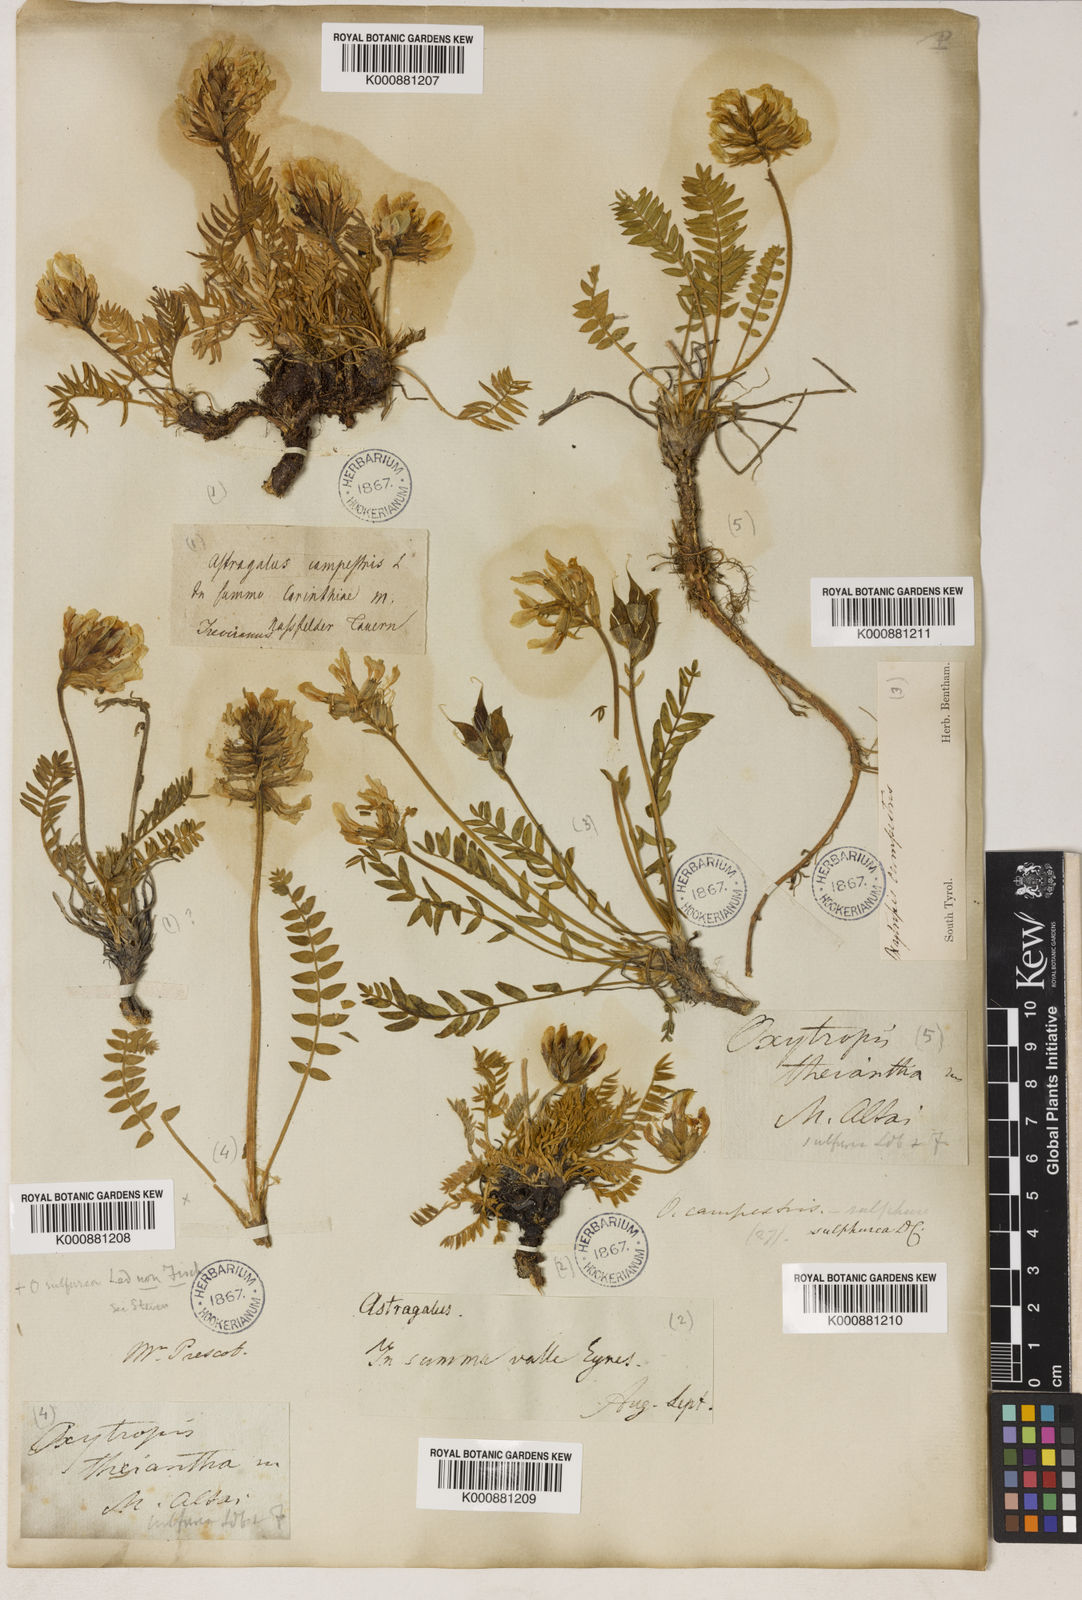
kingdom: Plantae
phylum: Tracheophyta
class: Magnoliopsida
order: Fabales
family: Fabaceae
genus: Oxytropis
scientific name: Oxytropis sulphurea
